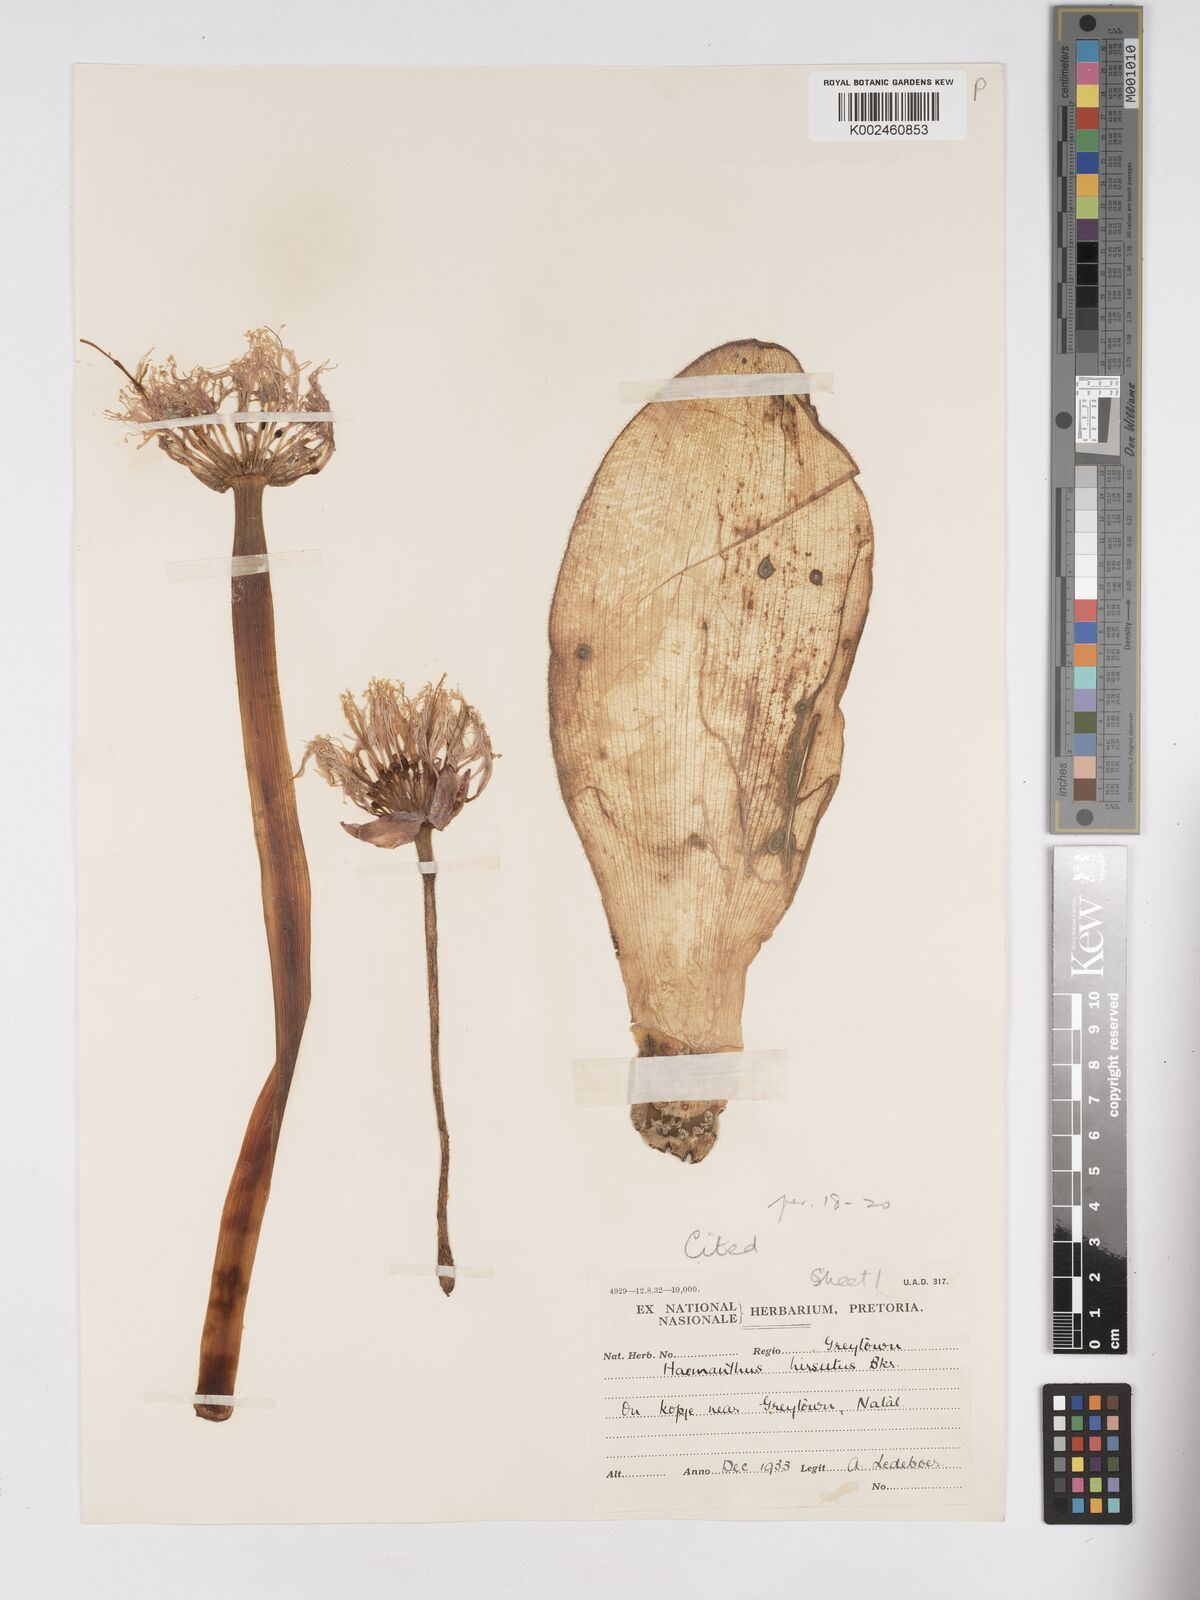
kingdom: Plantae
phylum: Tracheophyta
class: Liliopsida
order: Asparagales
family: Amaryllidaceae
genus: Haemanthus
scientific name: Haemanthus humilis
